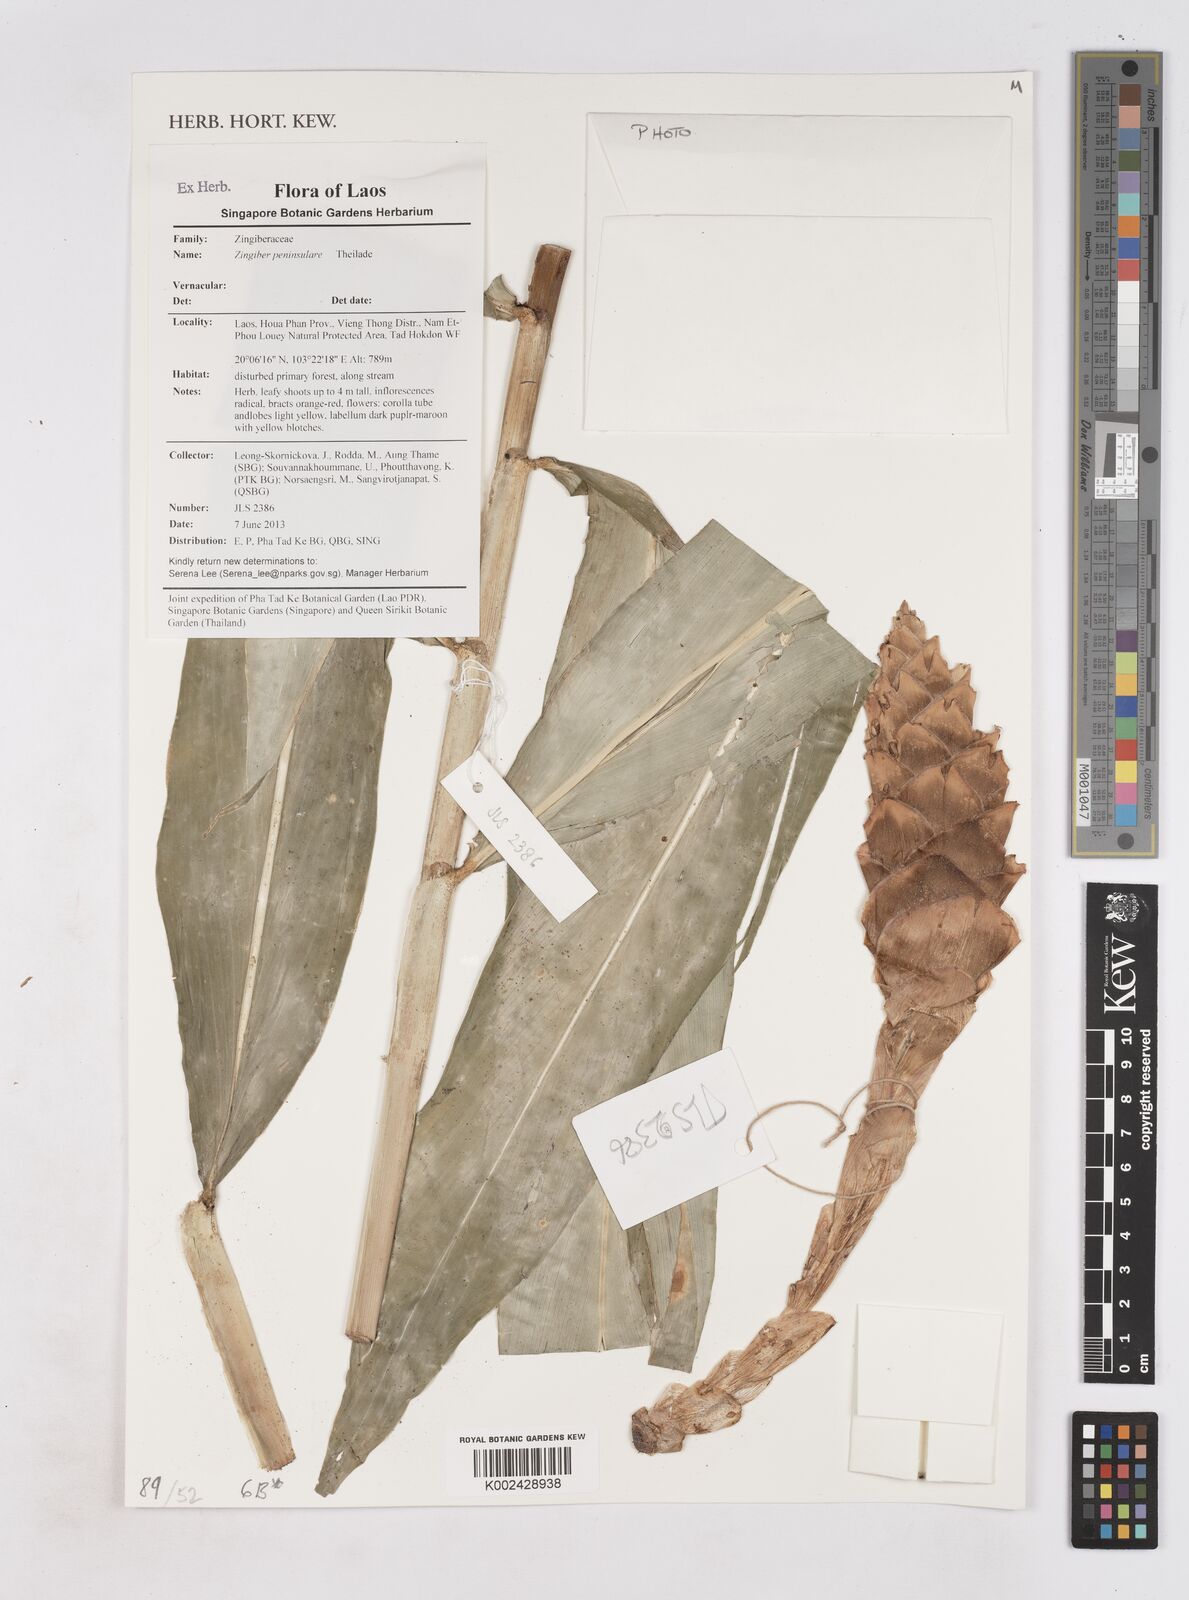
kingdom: Plantae
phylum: Tracheophyta
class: Liliopsida
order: Zingiberales
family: Zingiberaceae
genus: Zingiber
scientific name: Zingiber montanum
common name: Bengal ginger
